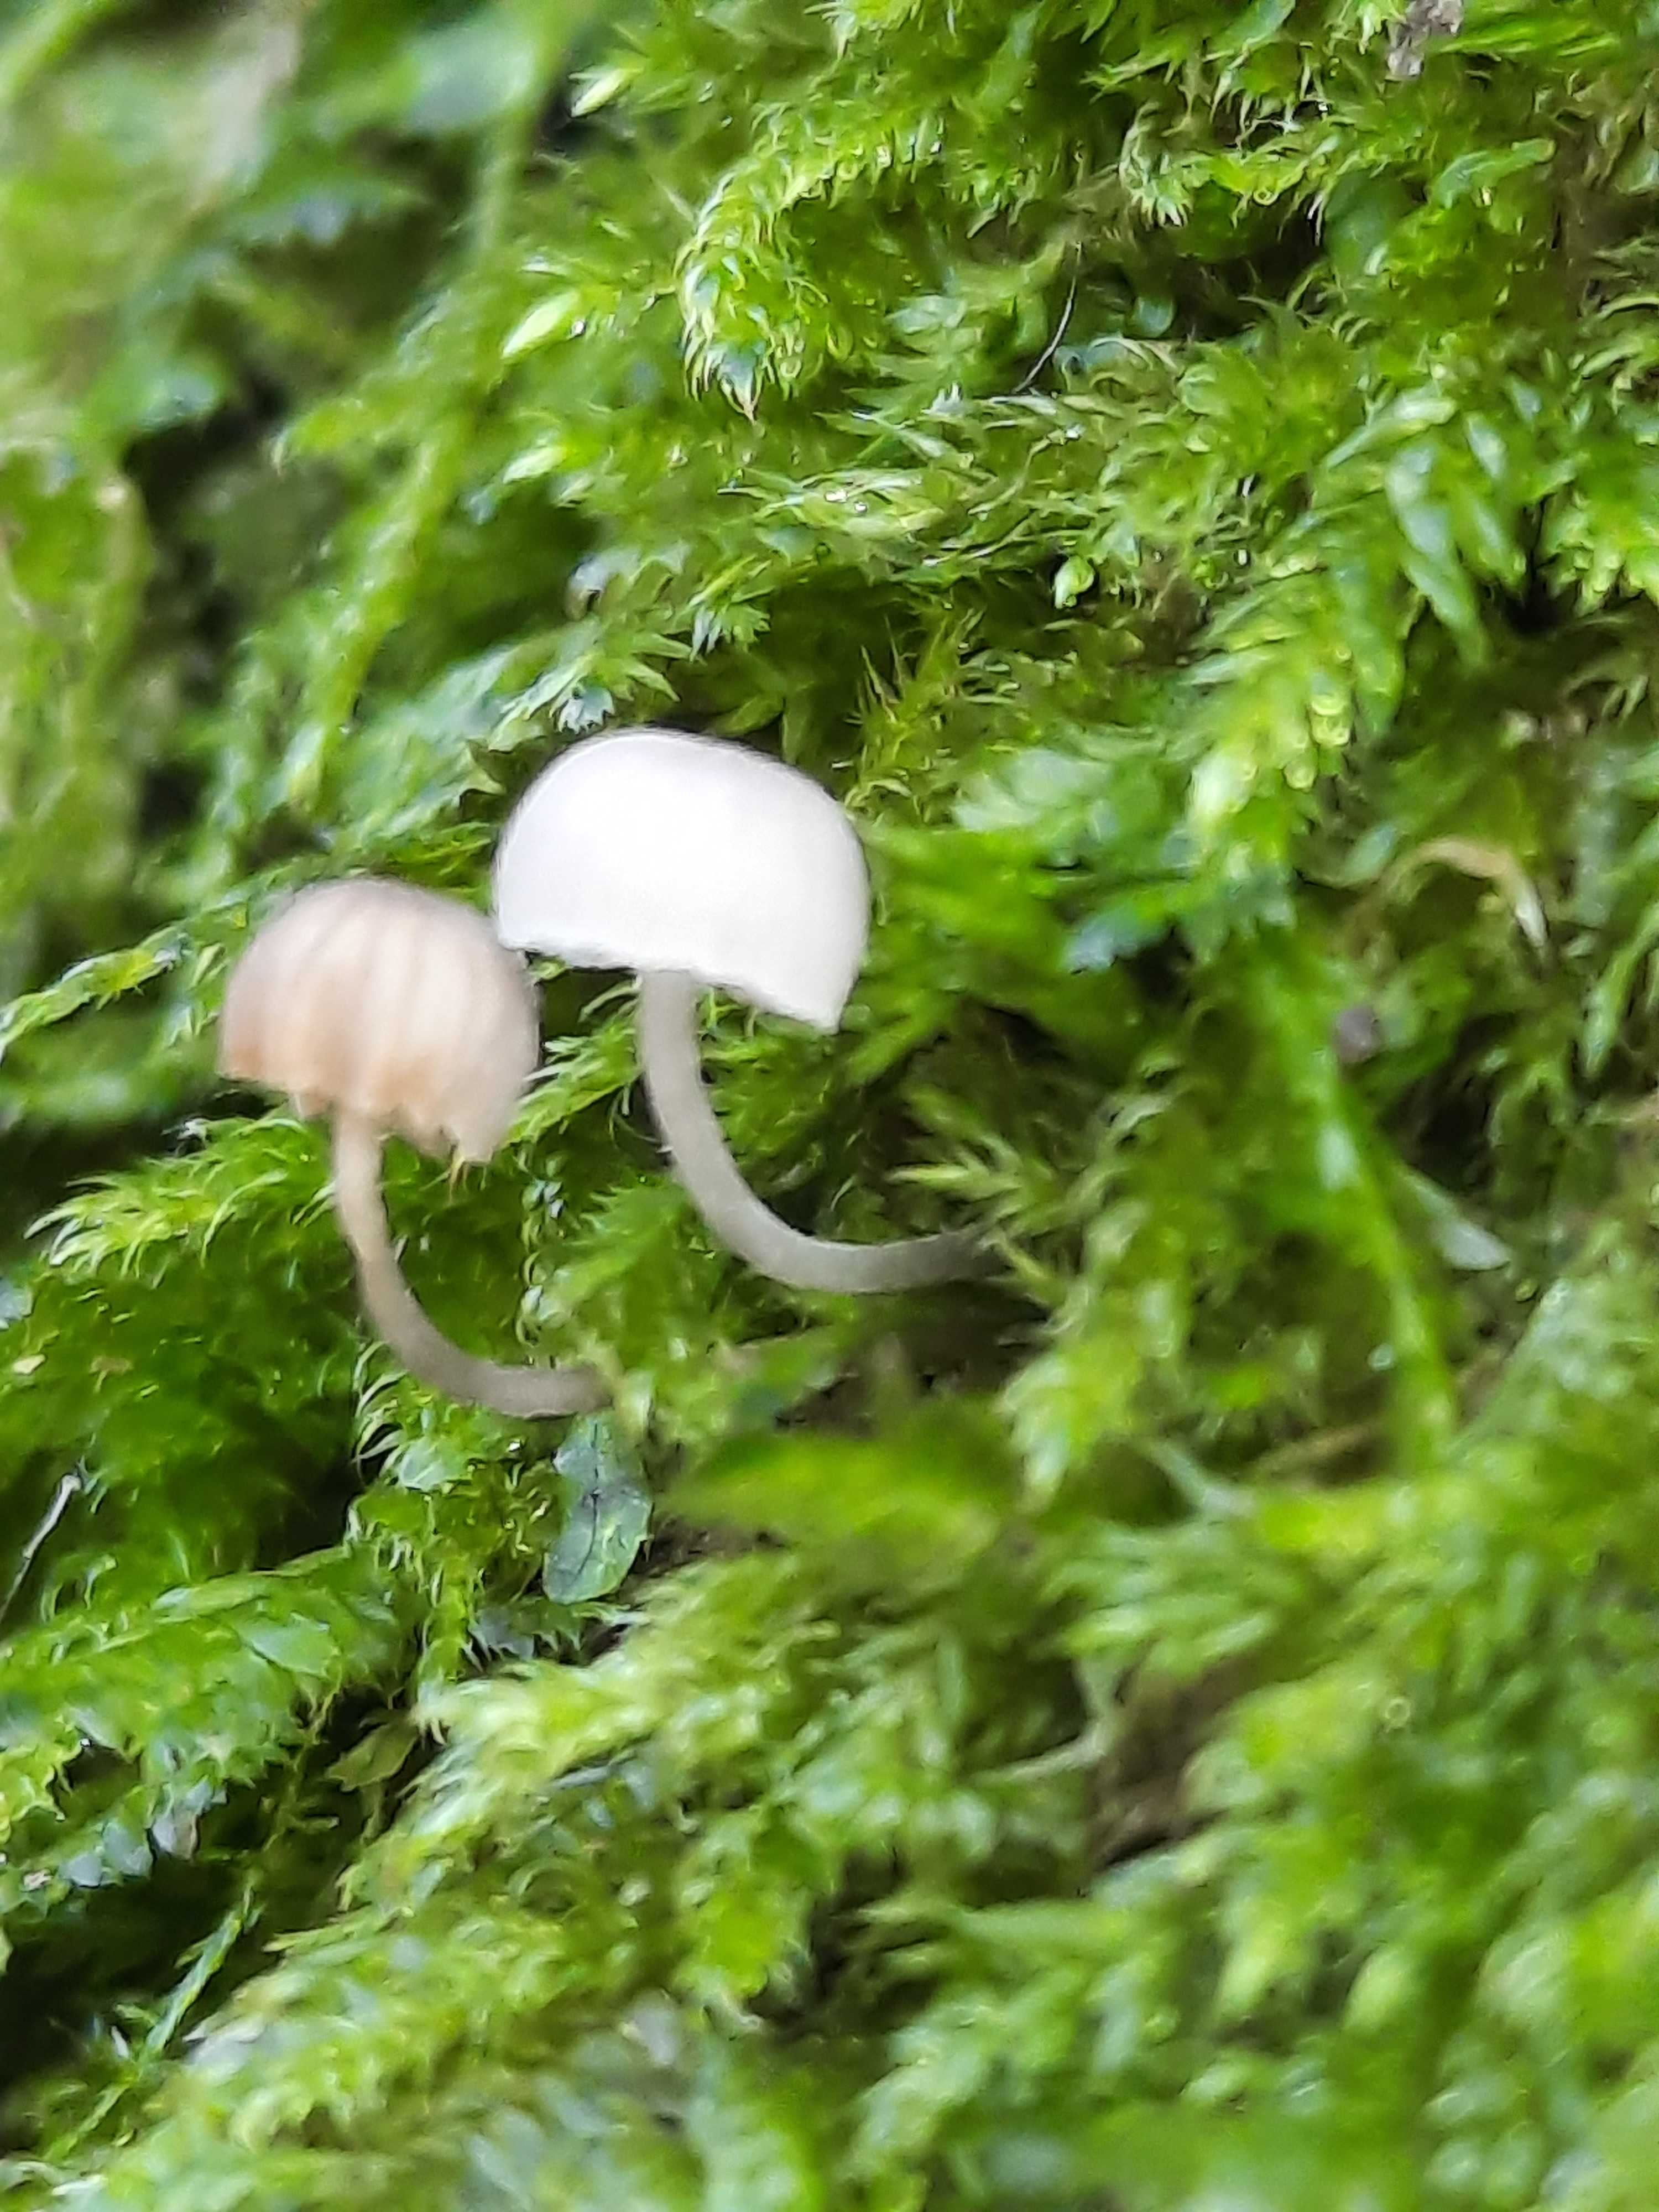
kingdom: Fungi
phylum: Basidiomycota
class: Agaricomycetes
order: Agaricales
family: Porotheleaceae
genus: Phloeomana
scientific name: Phloeomana
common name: huesvamp
